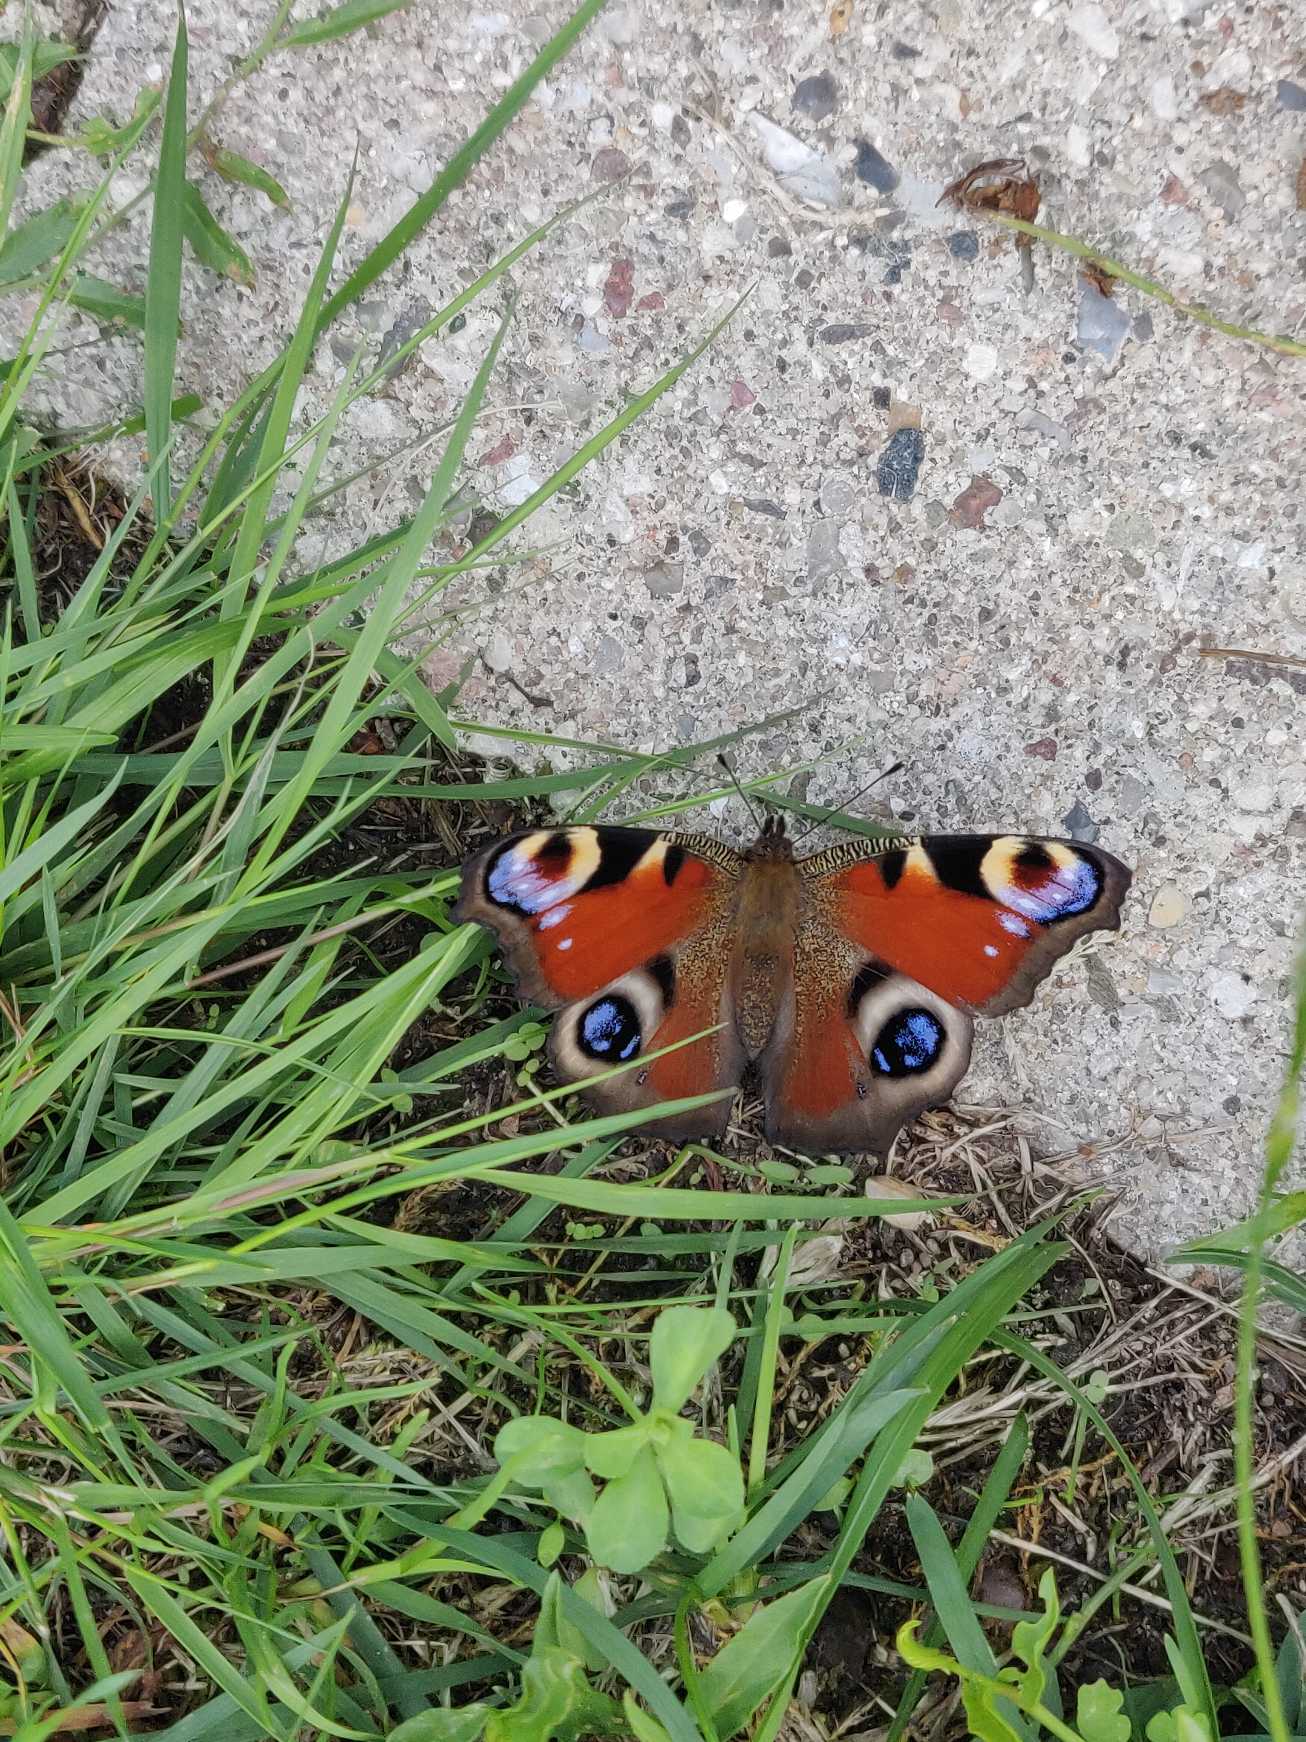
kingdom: Animalia
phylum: Arthropoda
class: Insecta
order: Lepidoptera
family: Nymphalidae
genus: Aglais
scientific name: Aglais io
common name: Dagpåfugleøje
